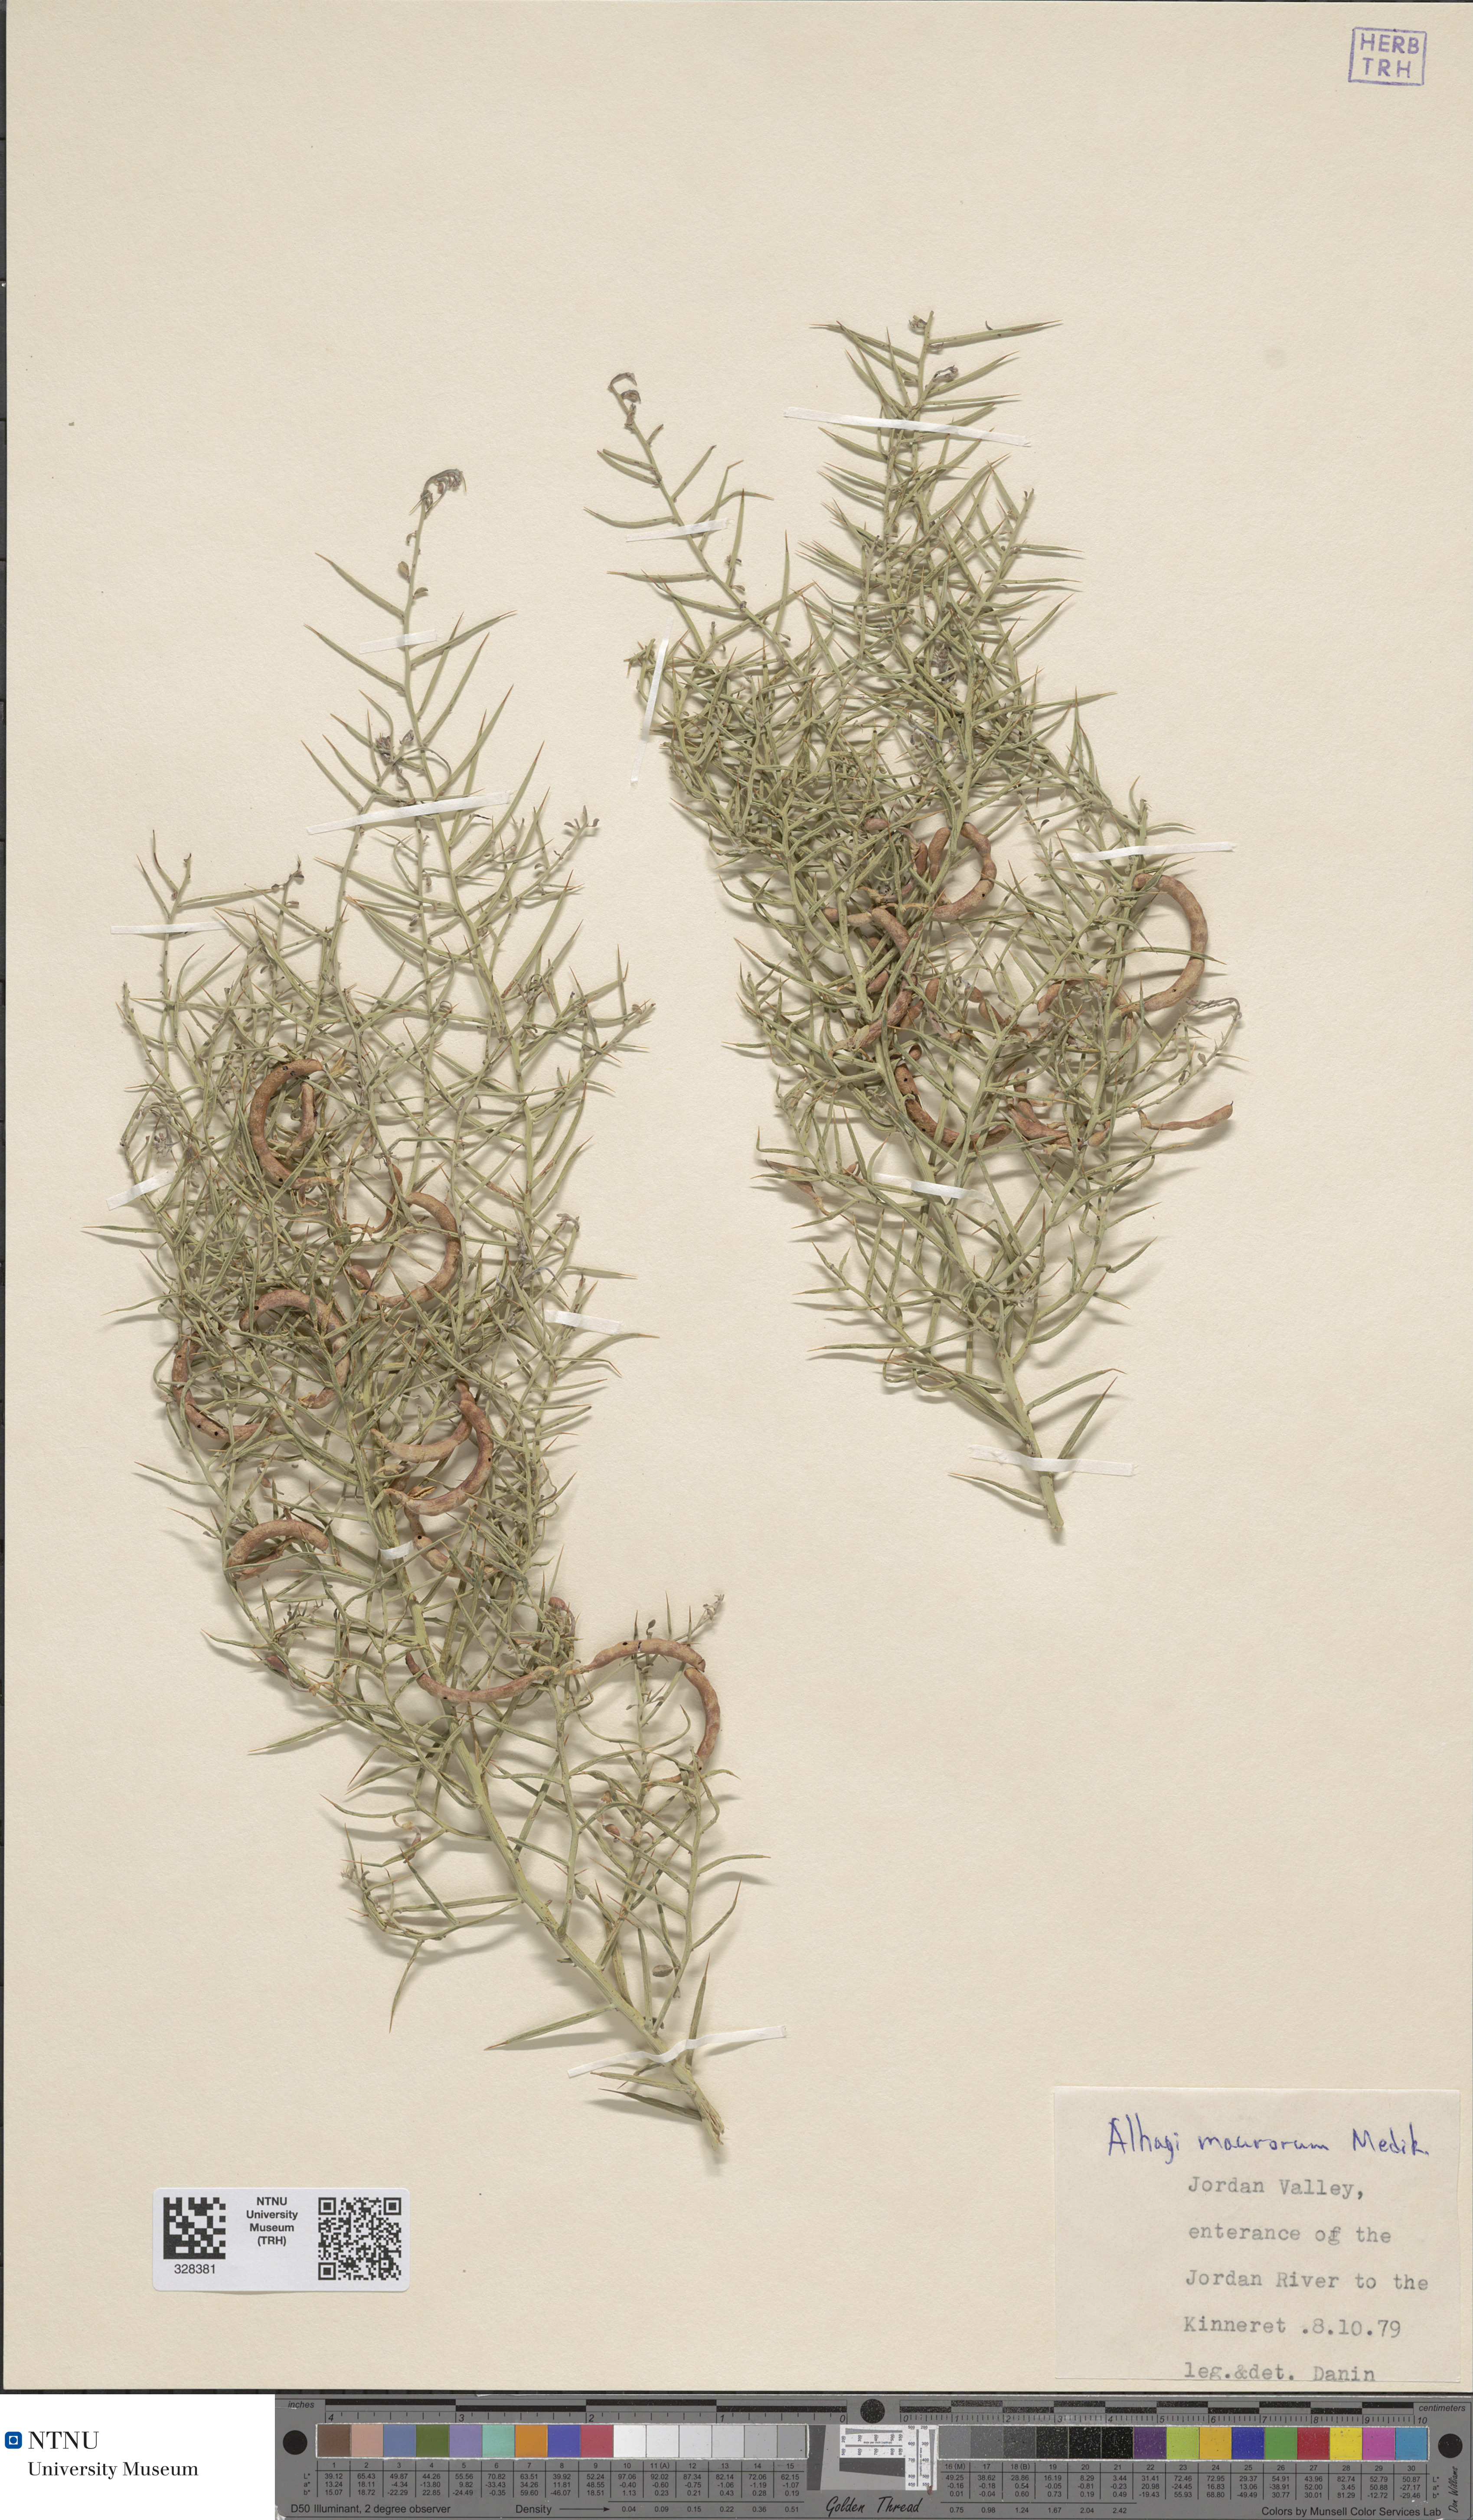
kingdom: Plantae
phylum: Tracheophyta
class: Magnoliopsida
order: Fabales
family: Fabaceae
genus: Alhagi
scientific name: Alhagi maurorum
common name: Camelthorn
